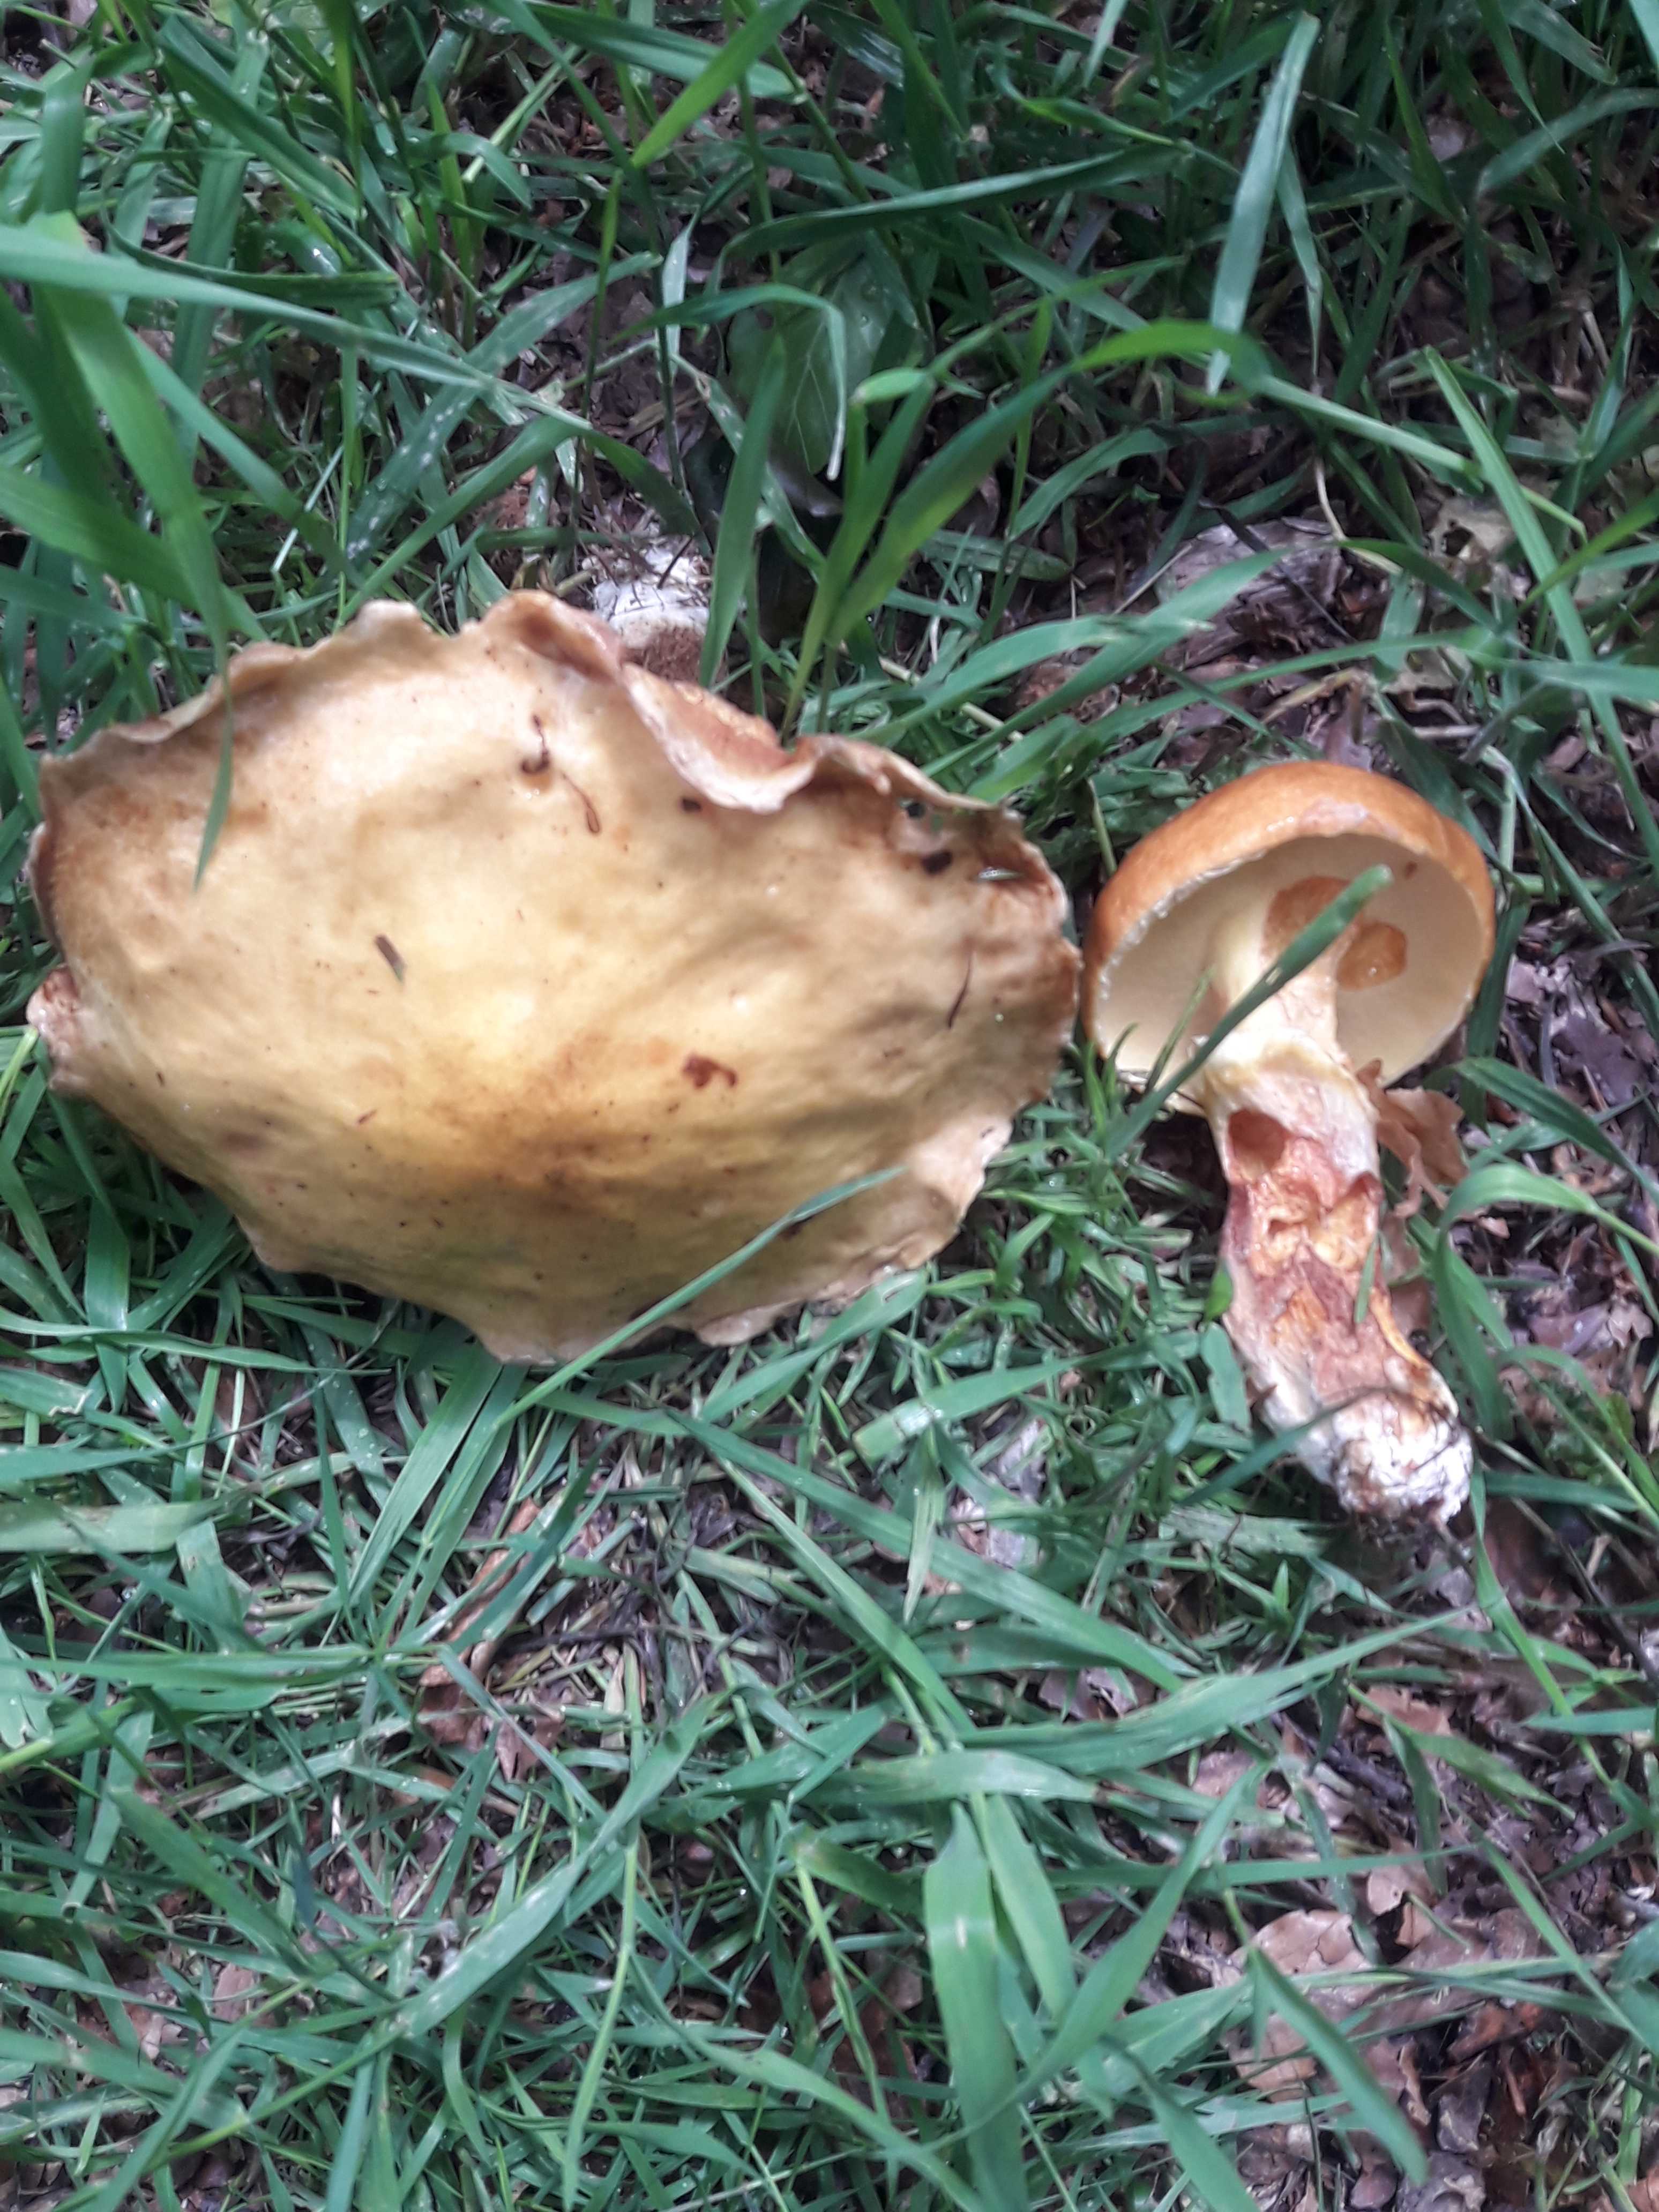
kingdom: Fungi
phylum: Basidiomycota
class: Agaricomycetes
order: Boletales
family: Suillaceae
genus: Suillus
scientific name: Suillus grevillei
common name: lærke-slimrørhat
